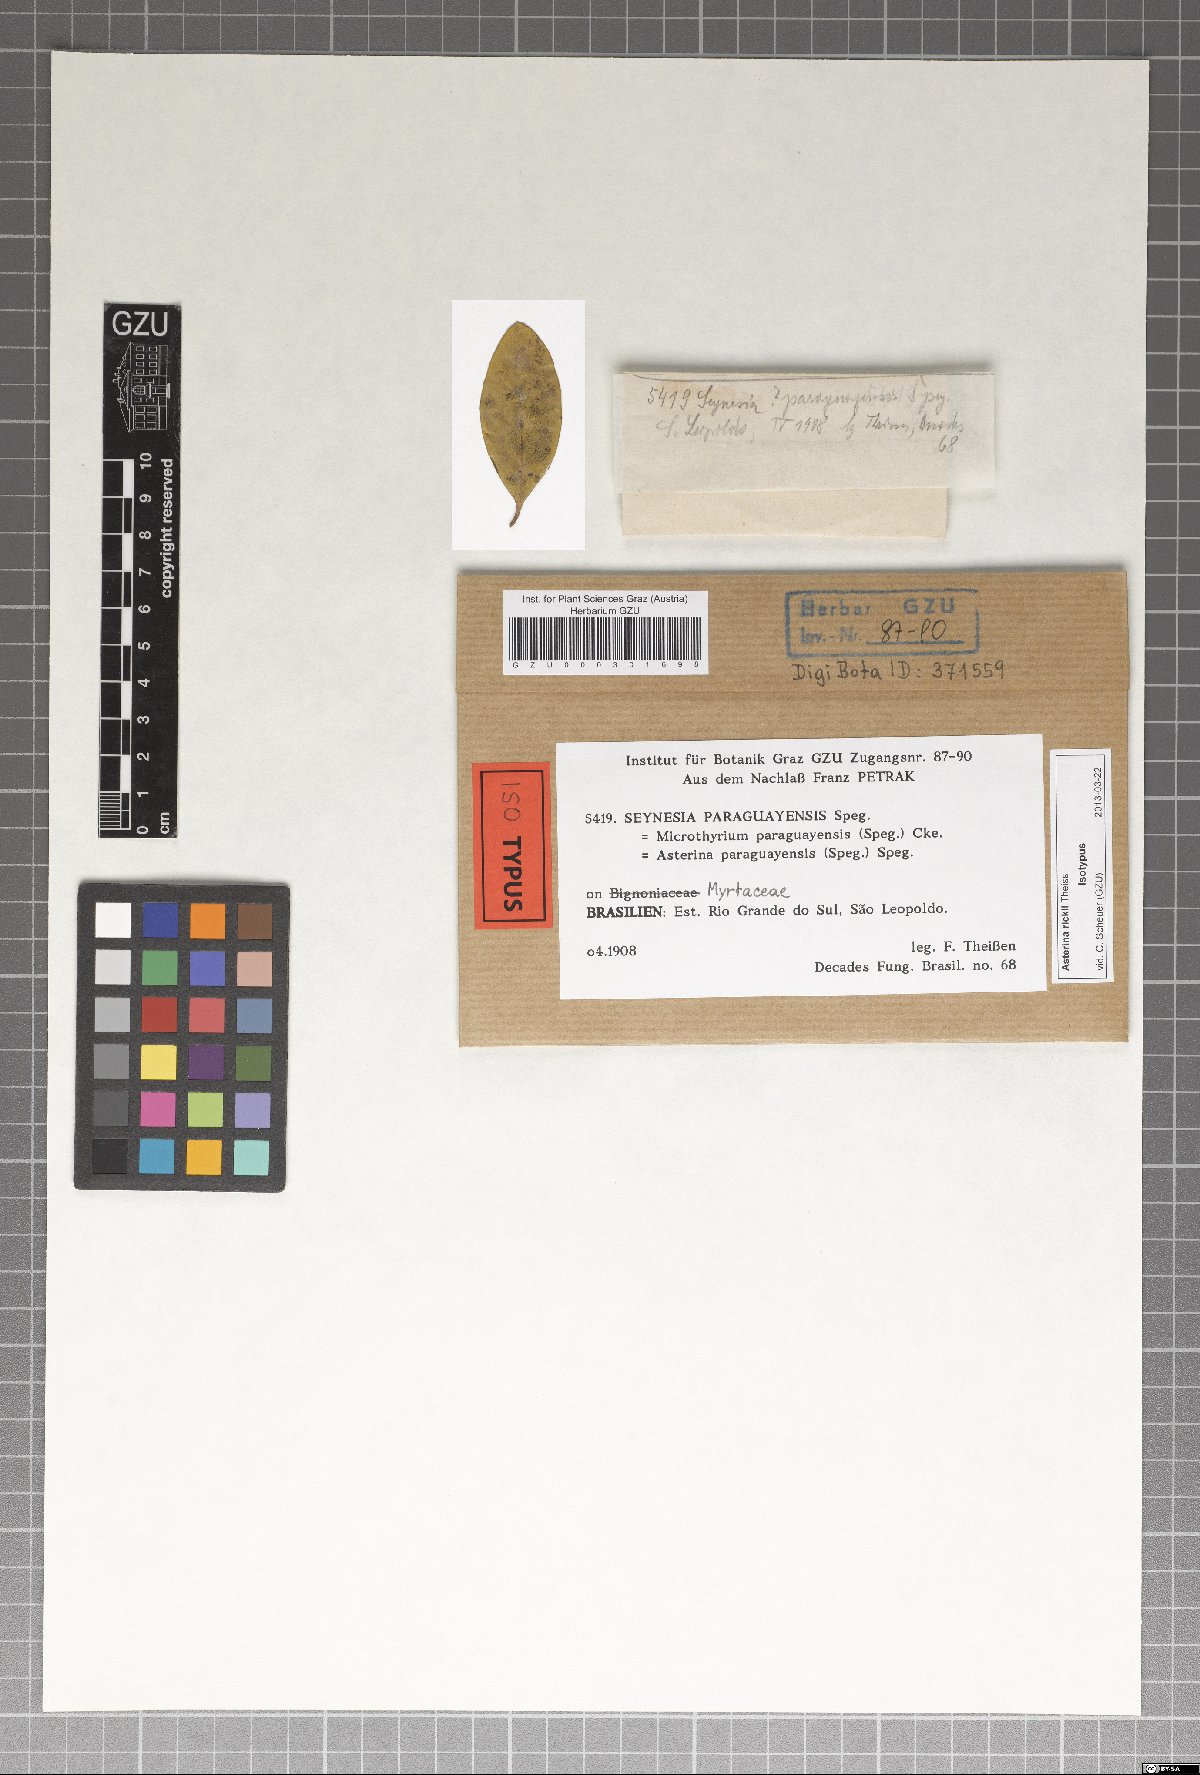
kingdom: Fungi
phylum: Ascomycota
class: Dothideomycetes
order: Asterinales
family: Asterinaceae
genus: Asterina
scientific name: Asterina rickii
